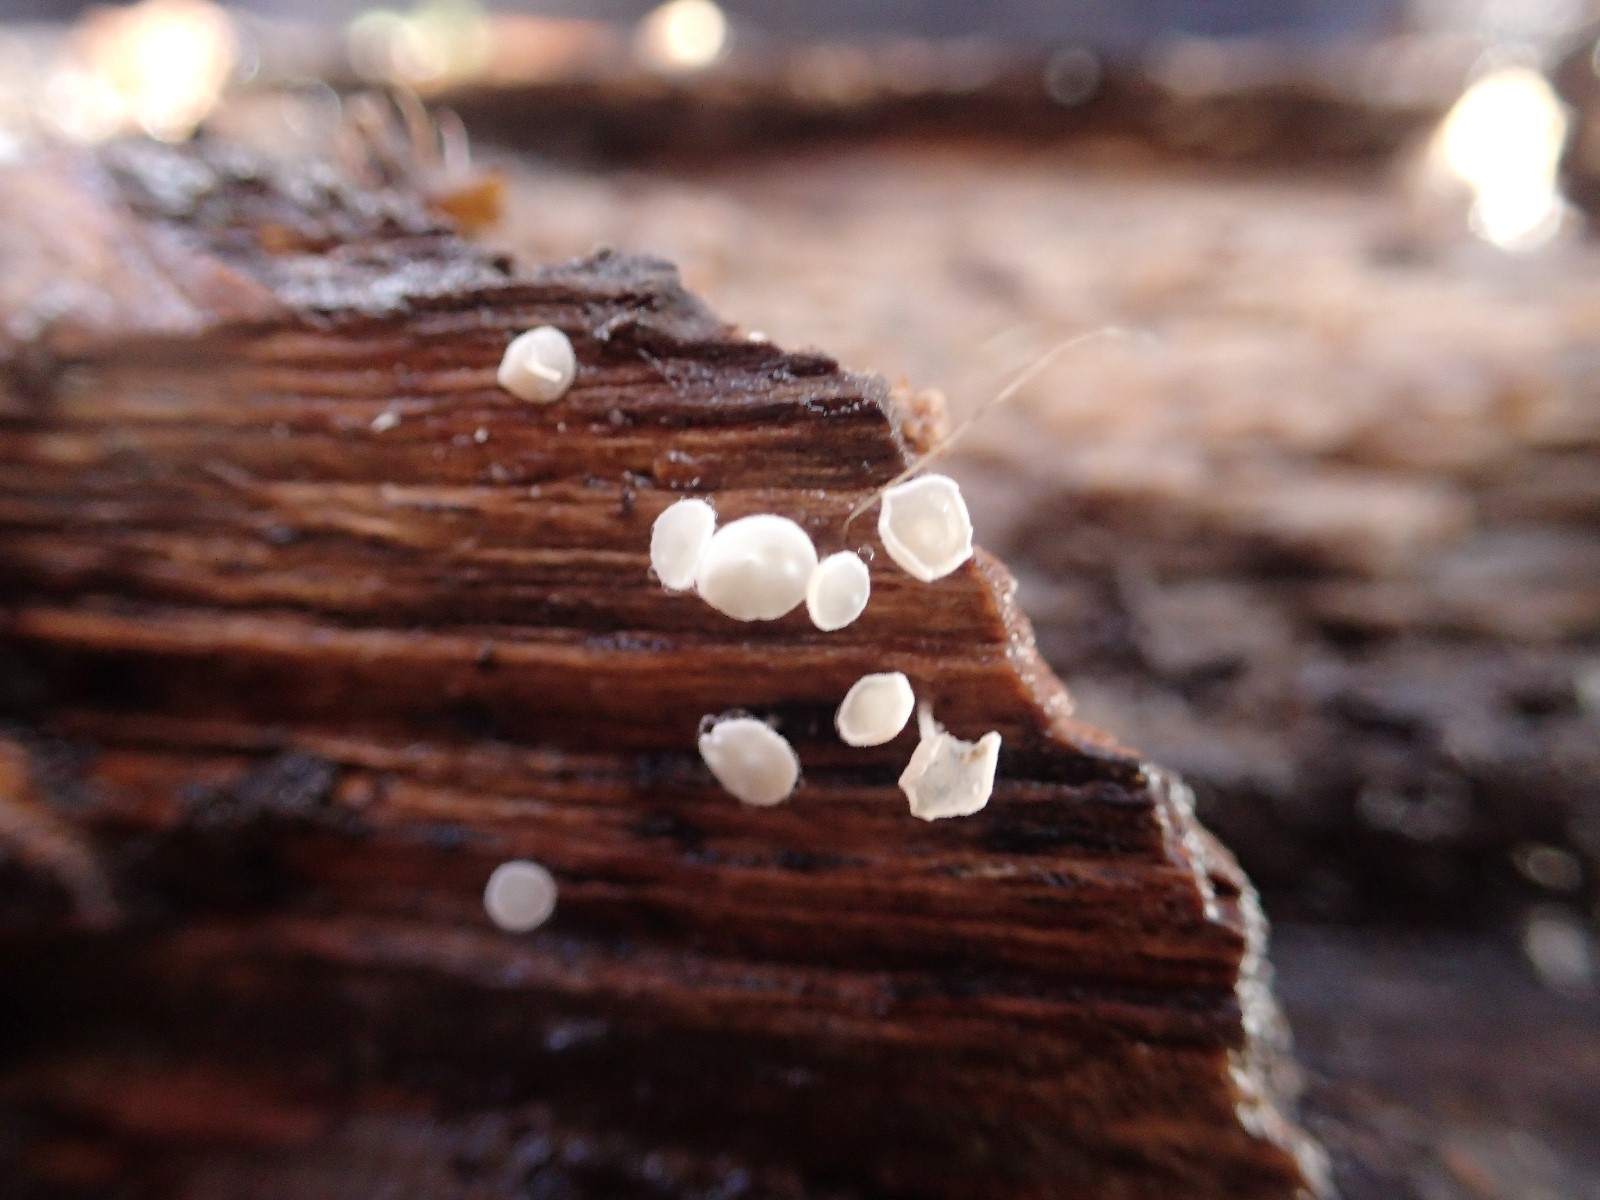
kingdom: Fungi
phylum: Ascomycota
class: Leotiomycetes
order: Helotiales
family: Hyaloscyphaceae
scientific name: Hyaloscyphaceae
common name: frynseskivefamilien
